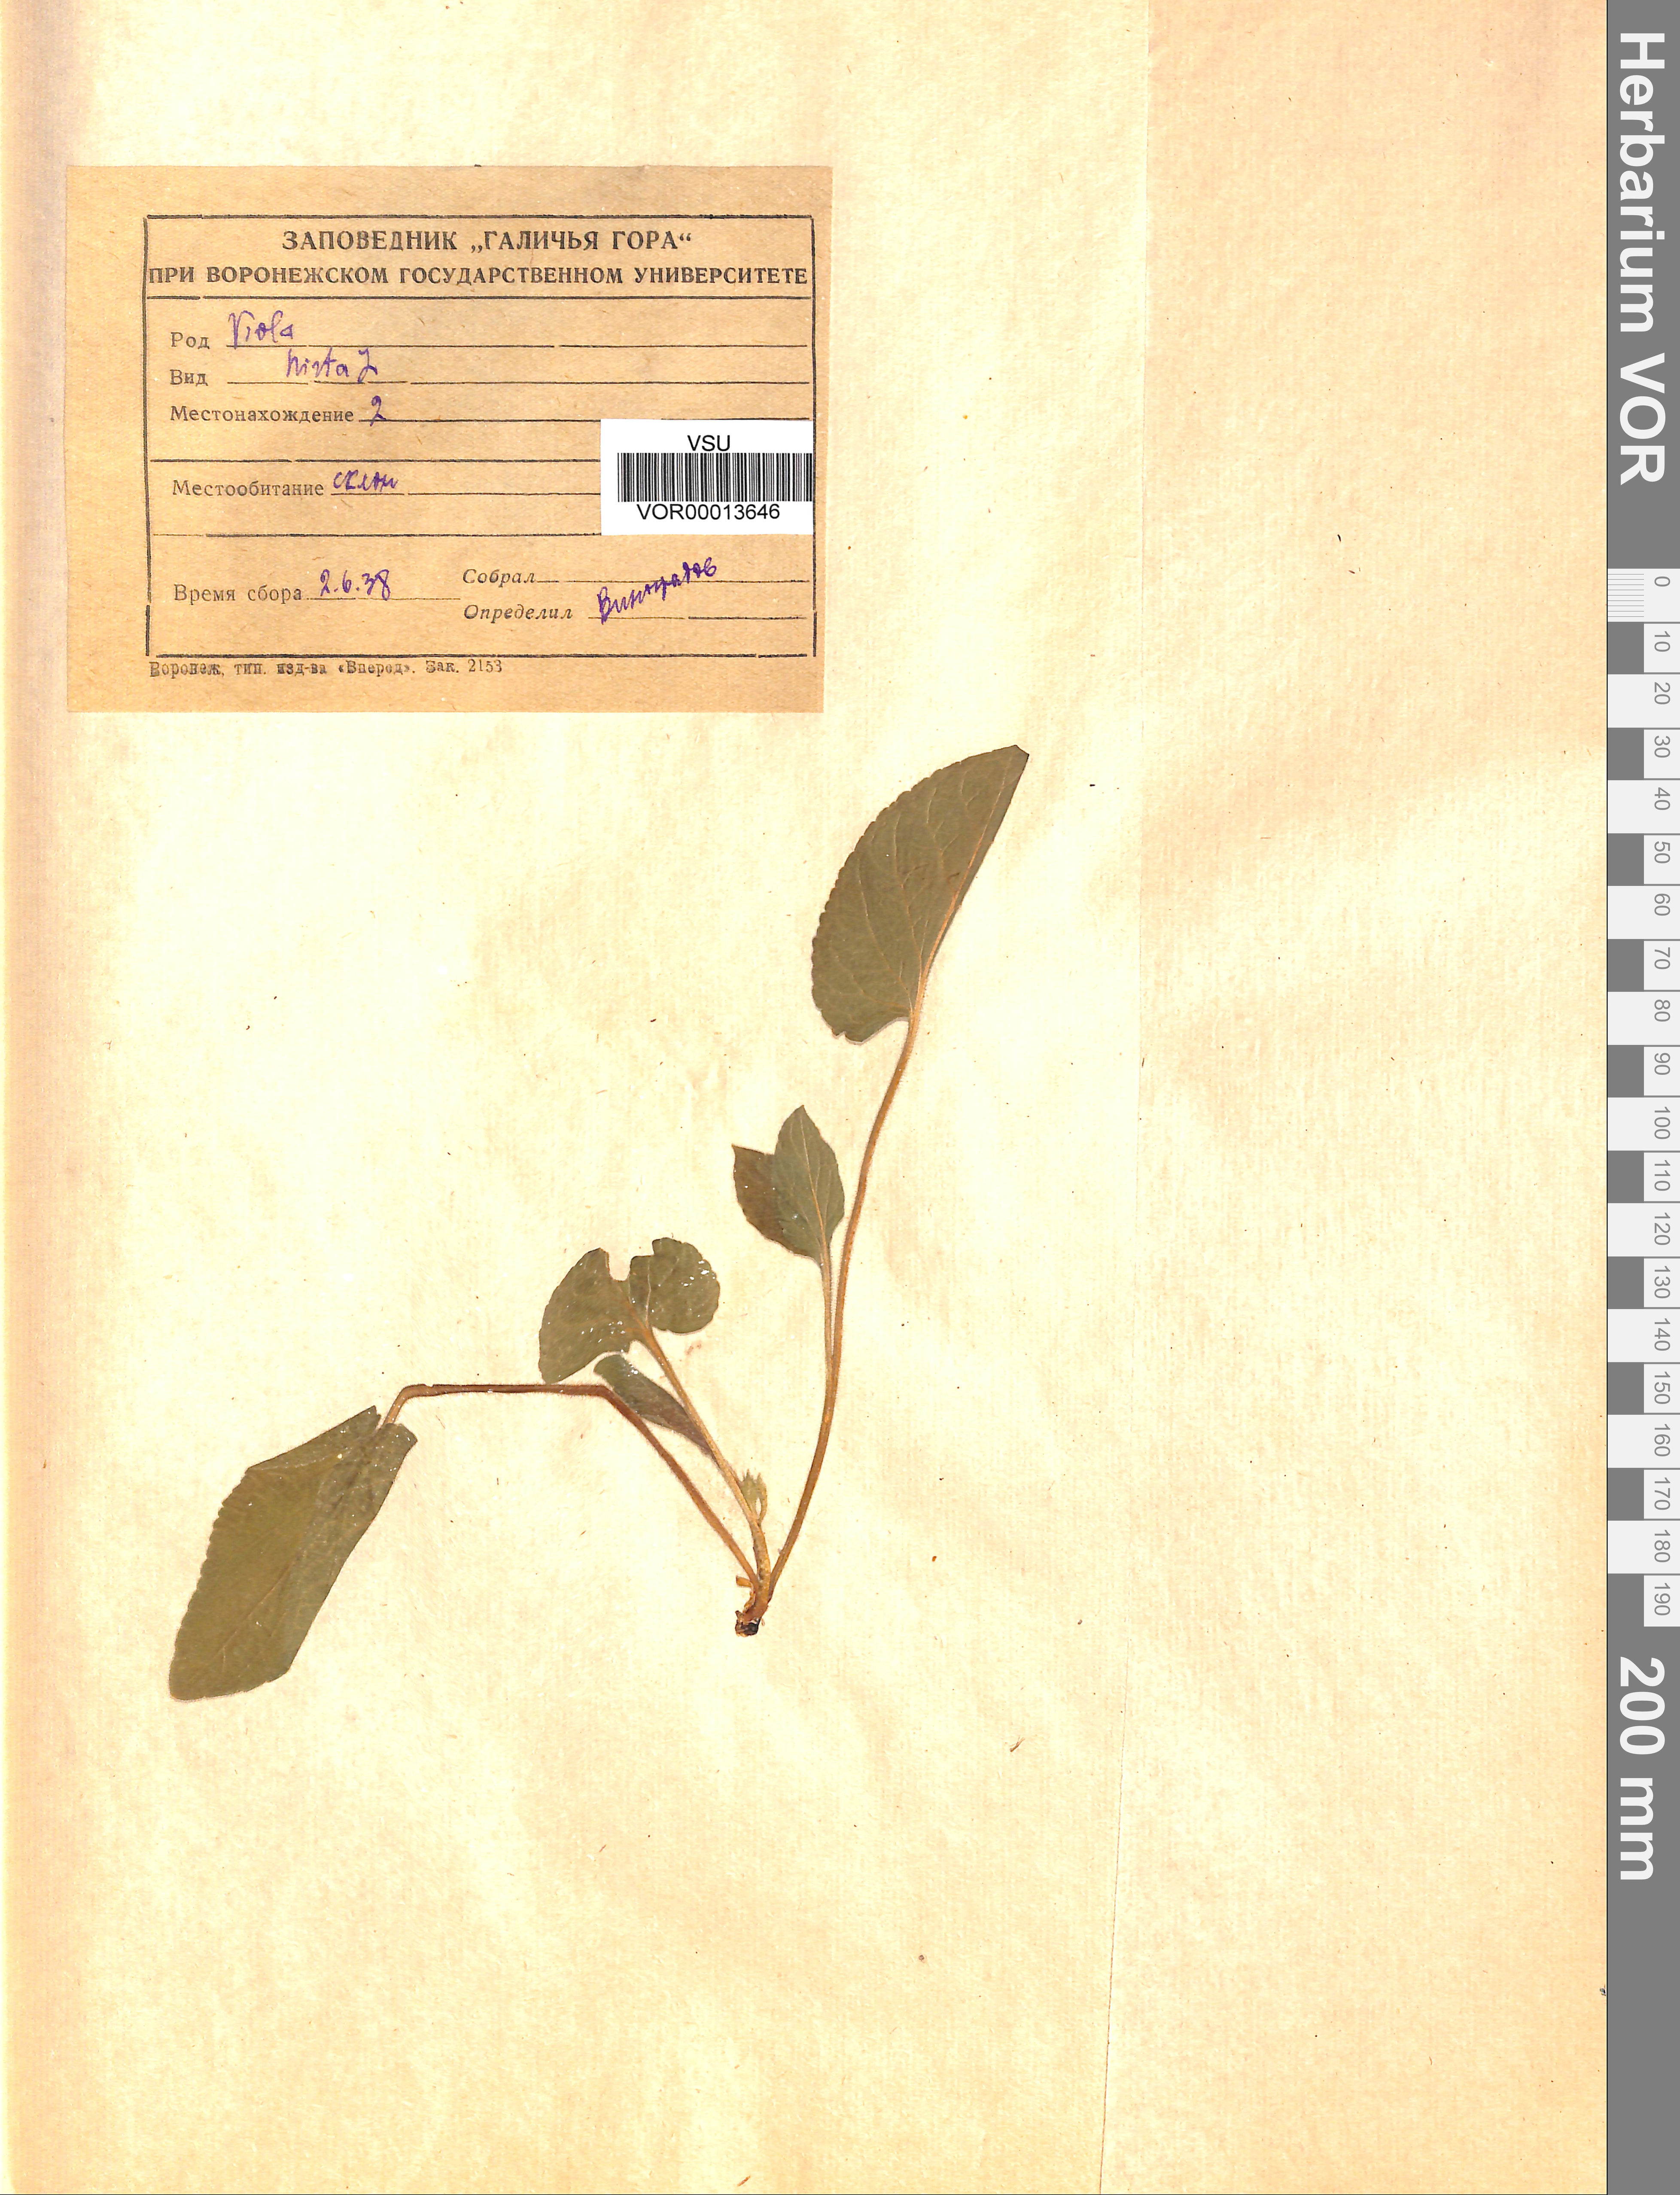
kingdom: Plantae
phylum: Tracheophyta
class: Magnoliopsida
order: Malpighiales
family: Violaceae
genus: Viola
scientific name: Viola hirta
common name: Hairy violet
